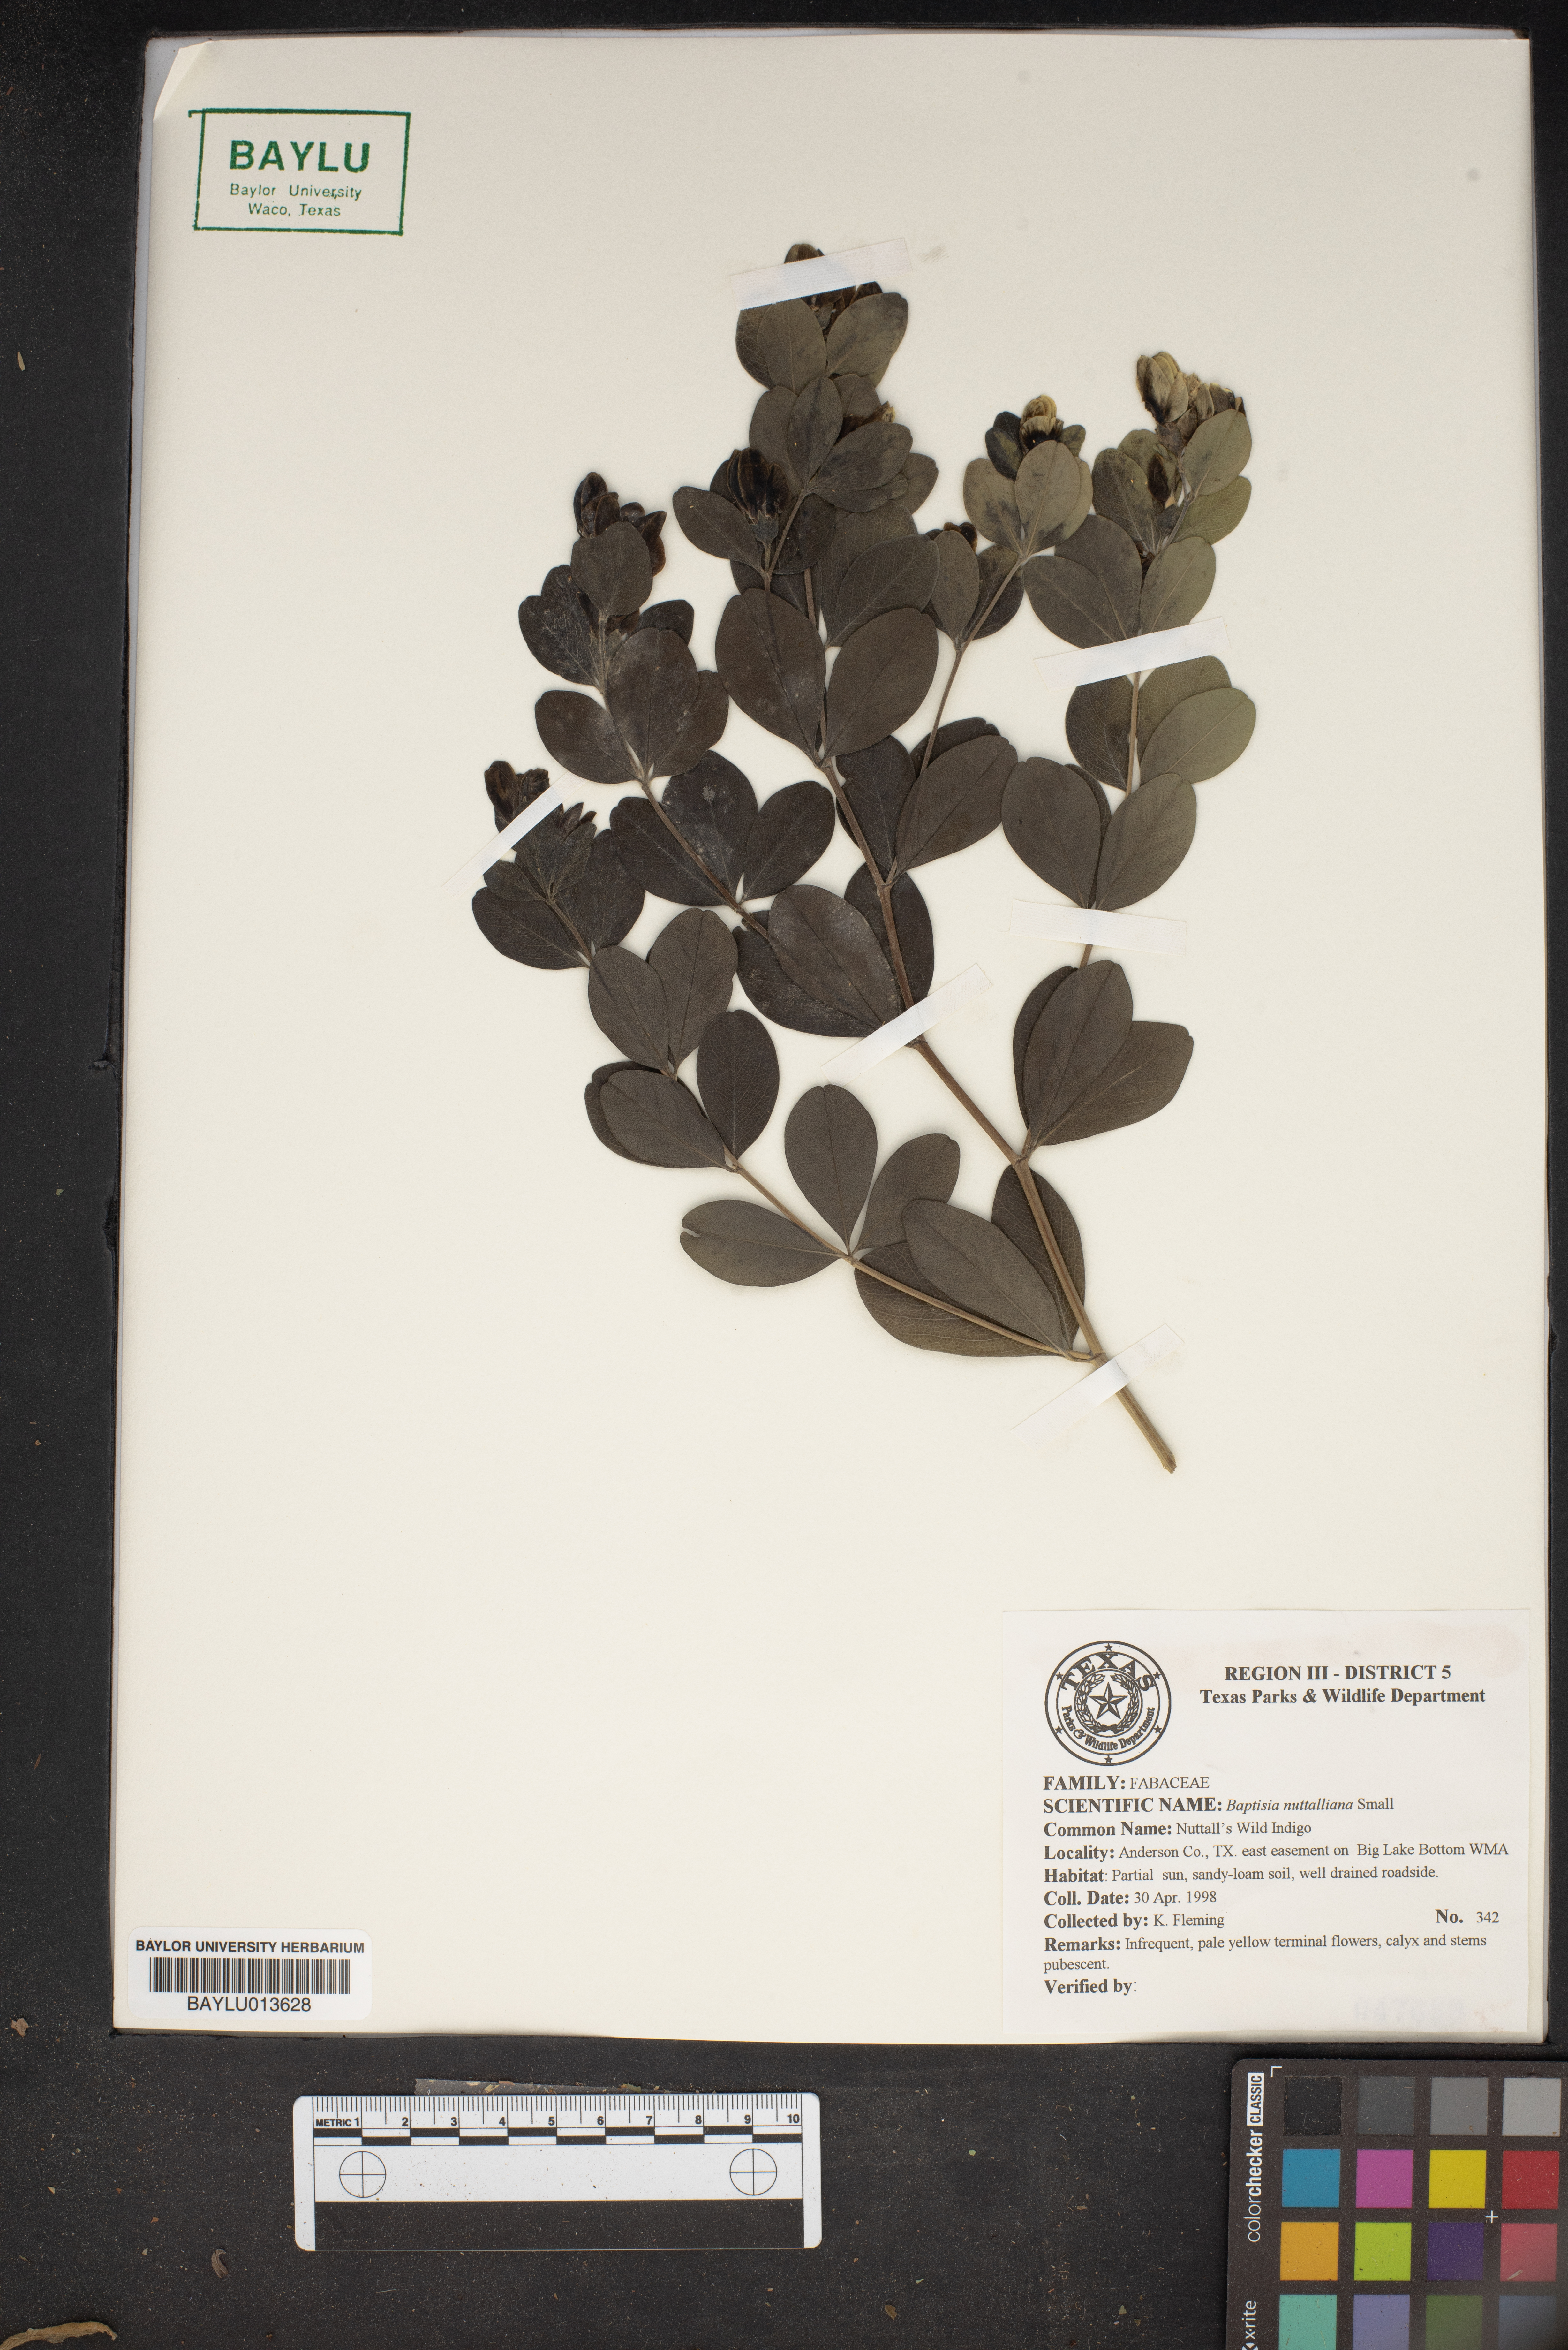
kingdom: Plantae
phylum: Tracheophyta
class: Magnoliopsida
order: Fabales
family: Fabaceae
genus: Baptisia
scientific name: Baptisia nuttalliana
